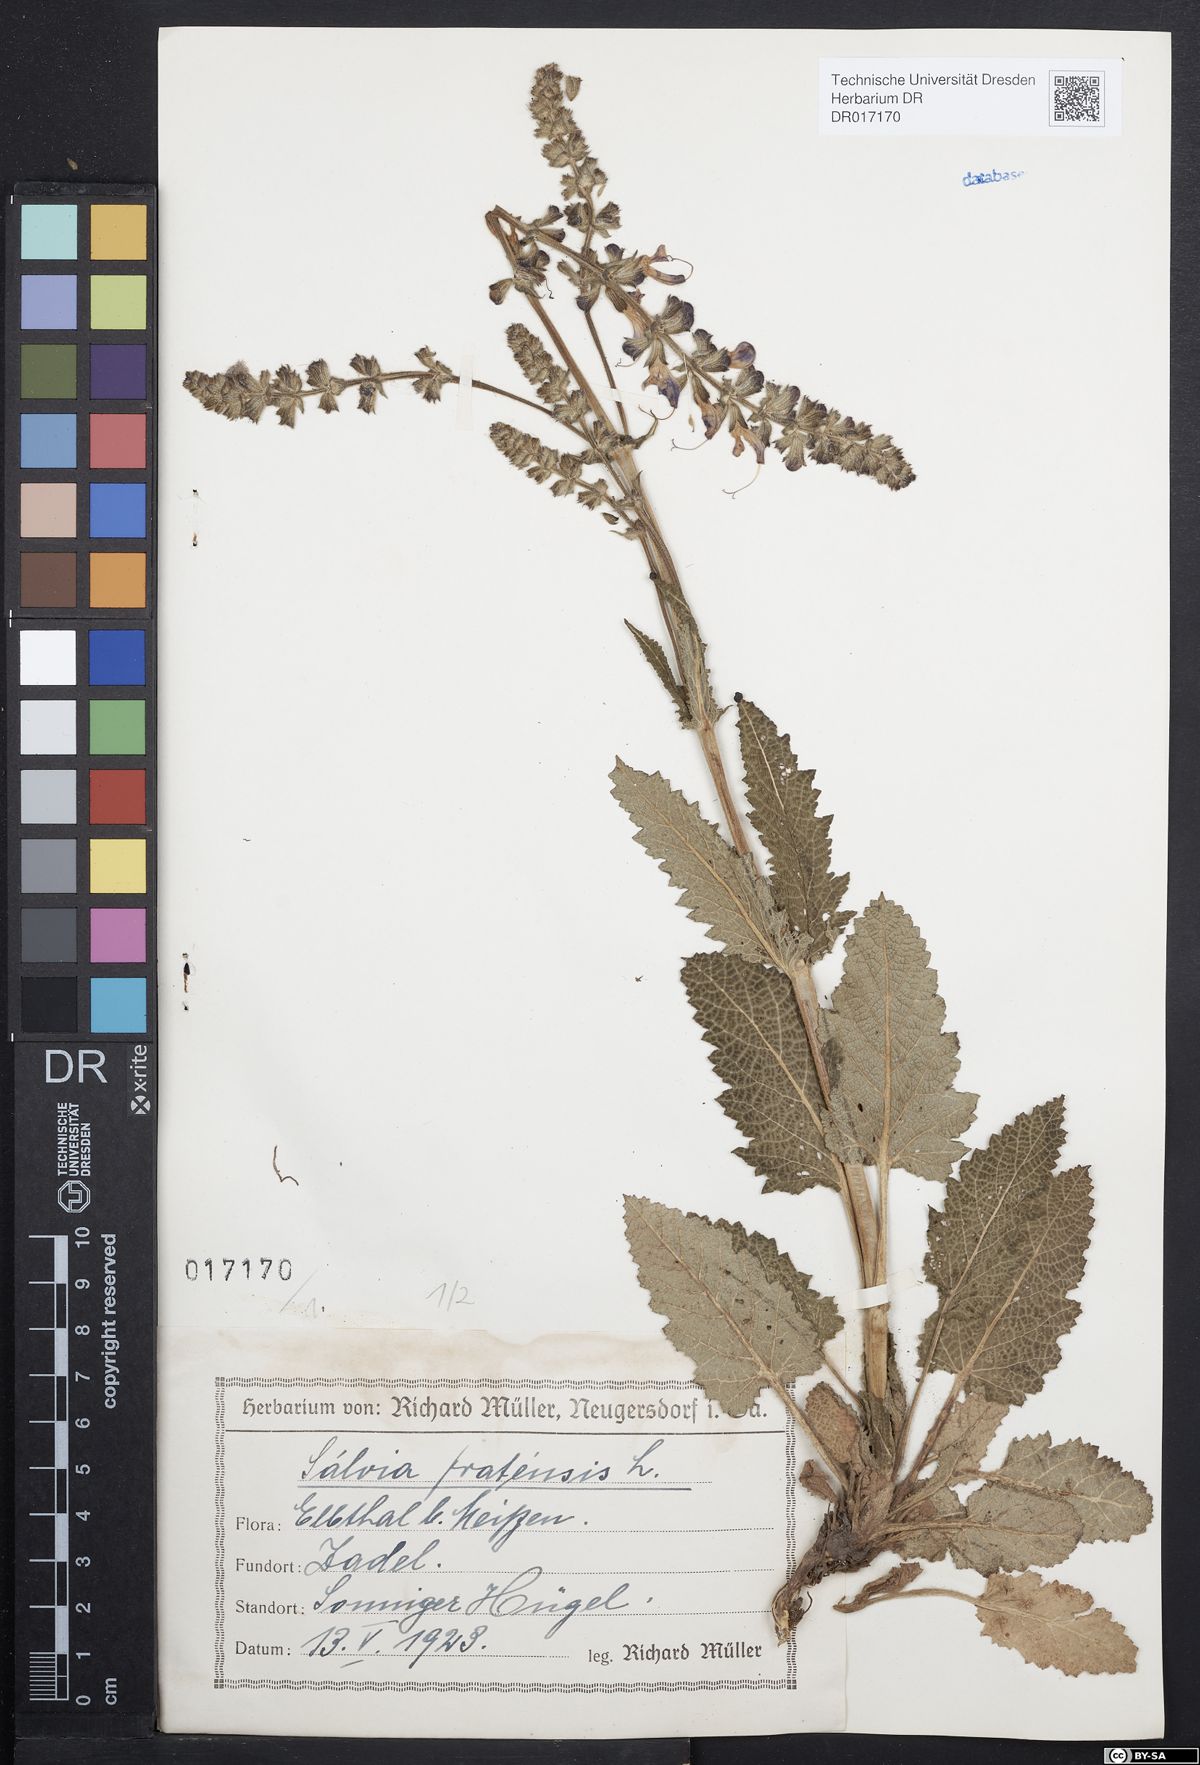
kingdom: Plantae
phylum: Tracheophyta
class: Magnoliopsida
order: Lamiales
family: Lamiaceae
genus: Salvia
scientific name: Salvia pratensis
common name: Meadow sage
